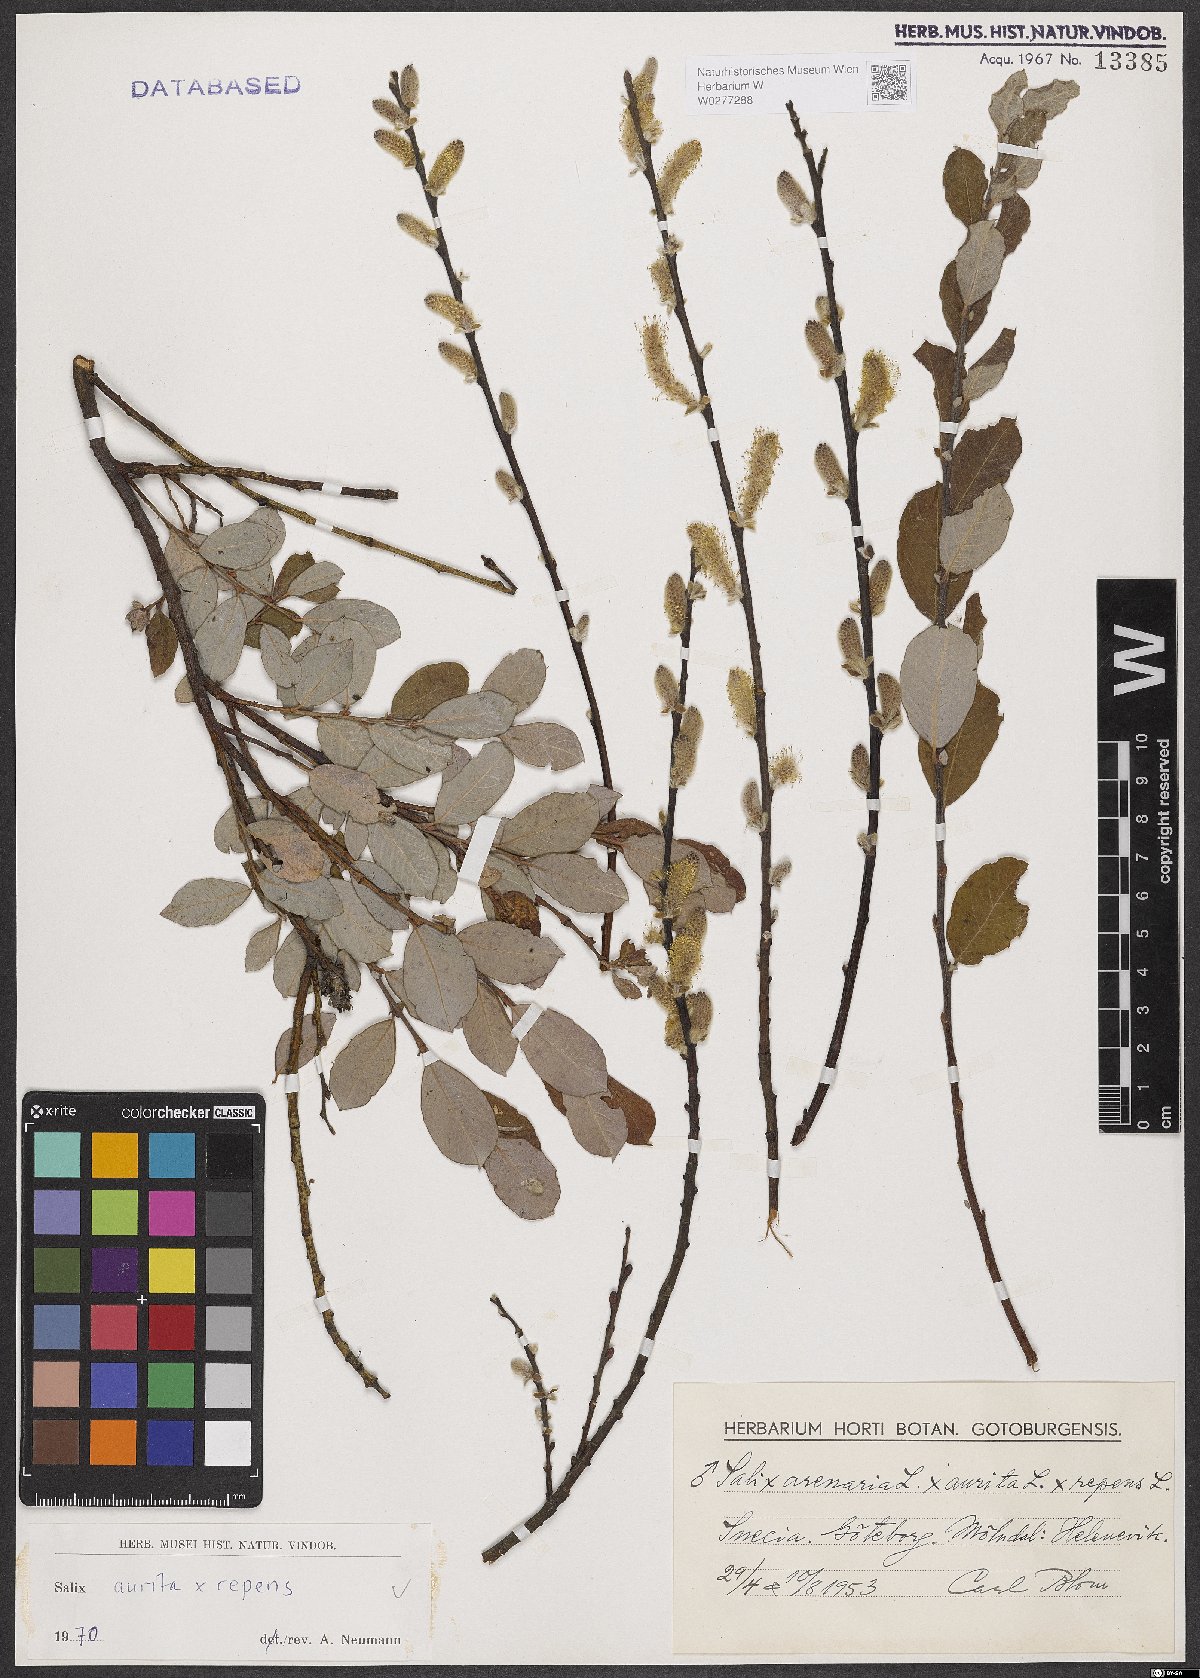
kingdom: Plantae
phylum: Tracheophyta
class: Magnoliopsida
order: Malpighiales
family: Salicaceae
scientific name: Salicaceae
